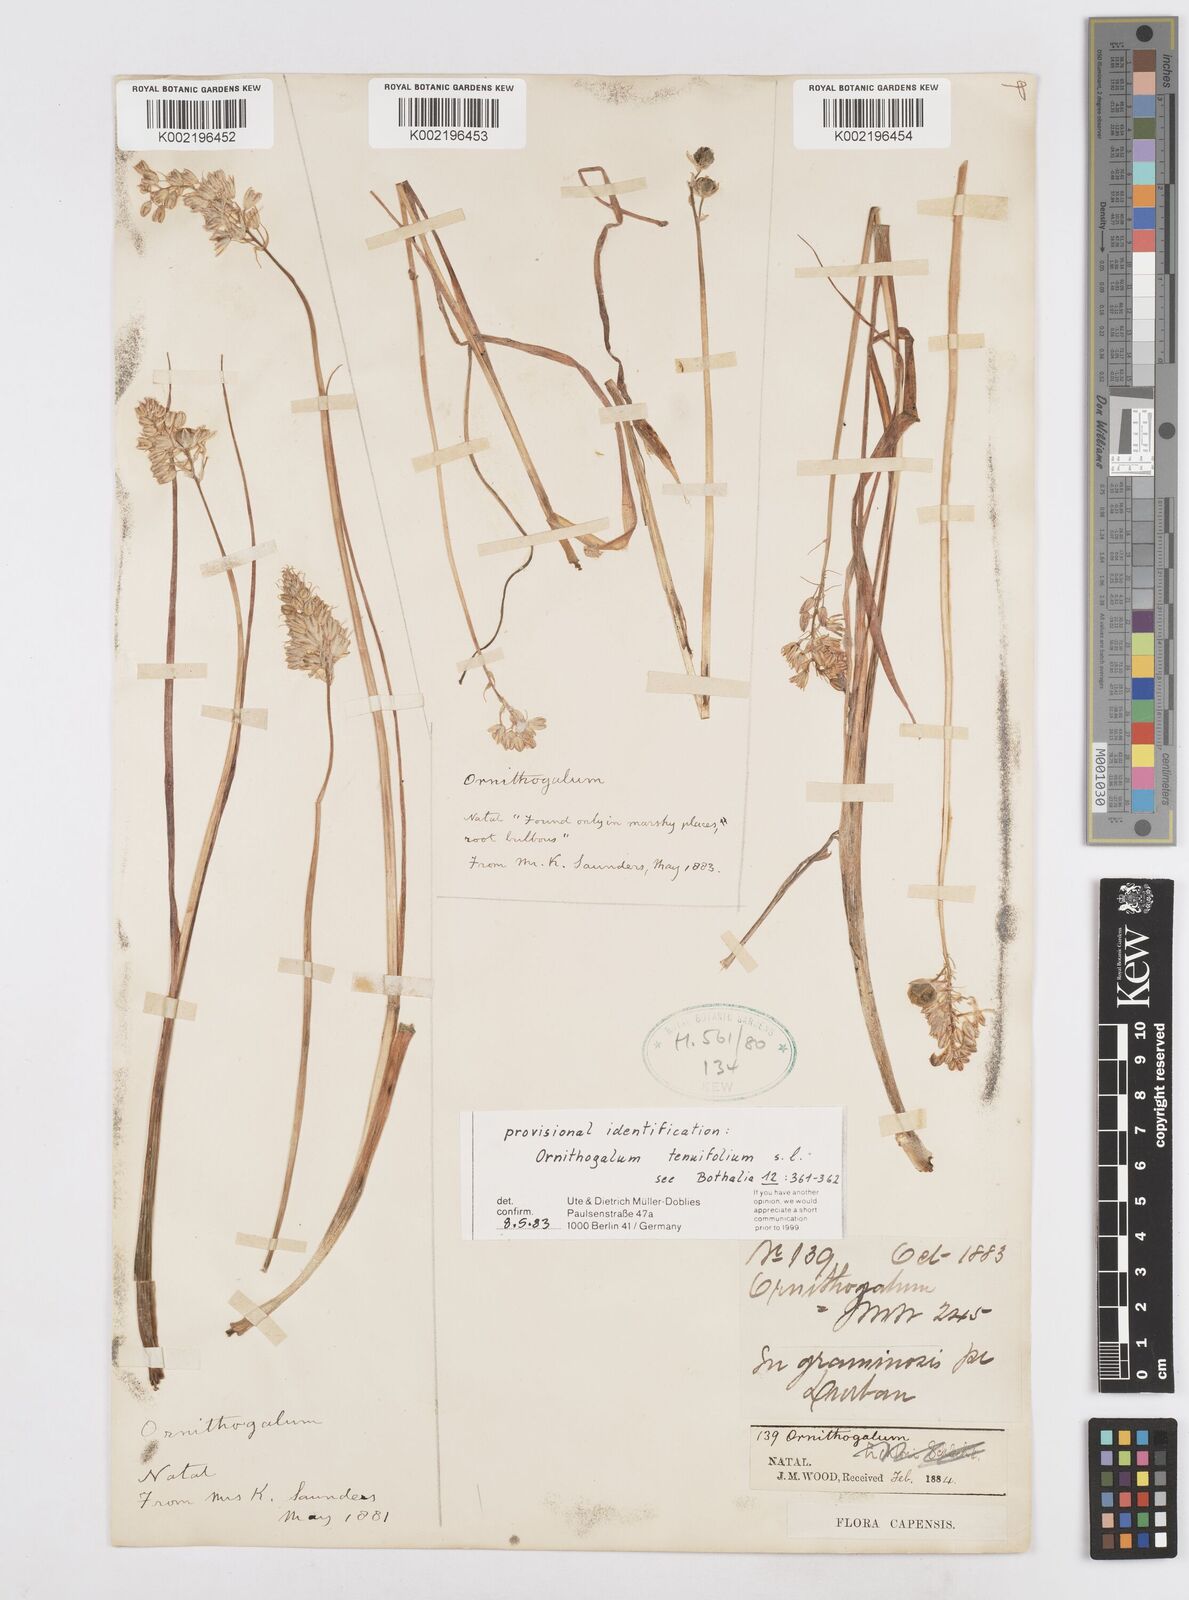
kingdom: Plantae
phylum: Tracheophyta
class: Liliopsida
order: Asparagales
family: Asparagaceae
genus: Albuca
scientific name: Albuca virens
